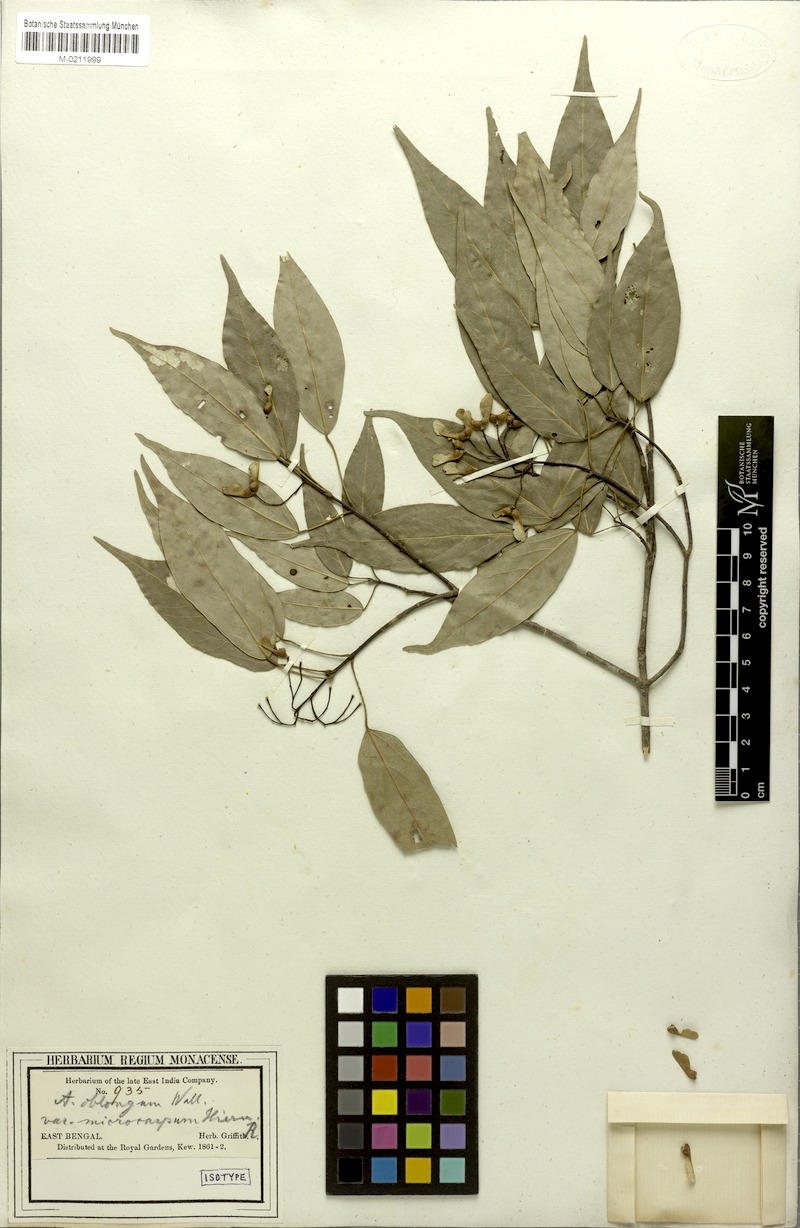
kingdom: Plantae
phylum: Tracheophyta
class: Magnoliopsida
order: Sapindales
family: Sapindaceae
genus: Acer
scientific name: Acer oblongum
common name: Himalayan maple
